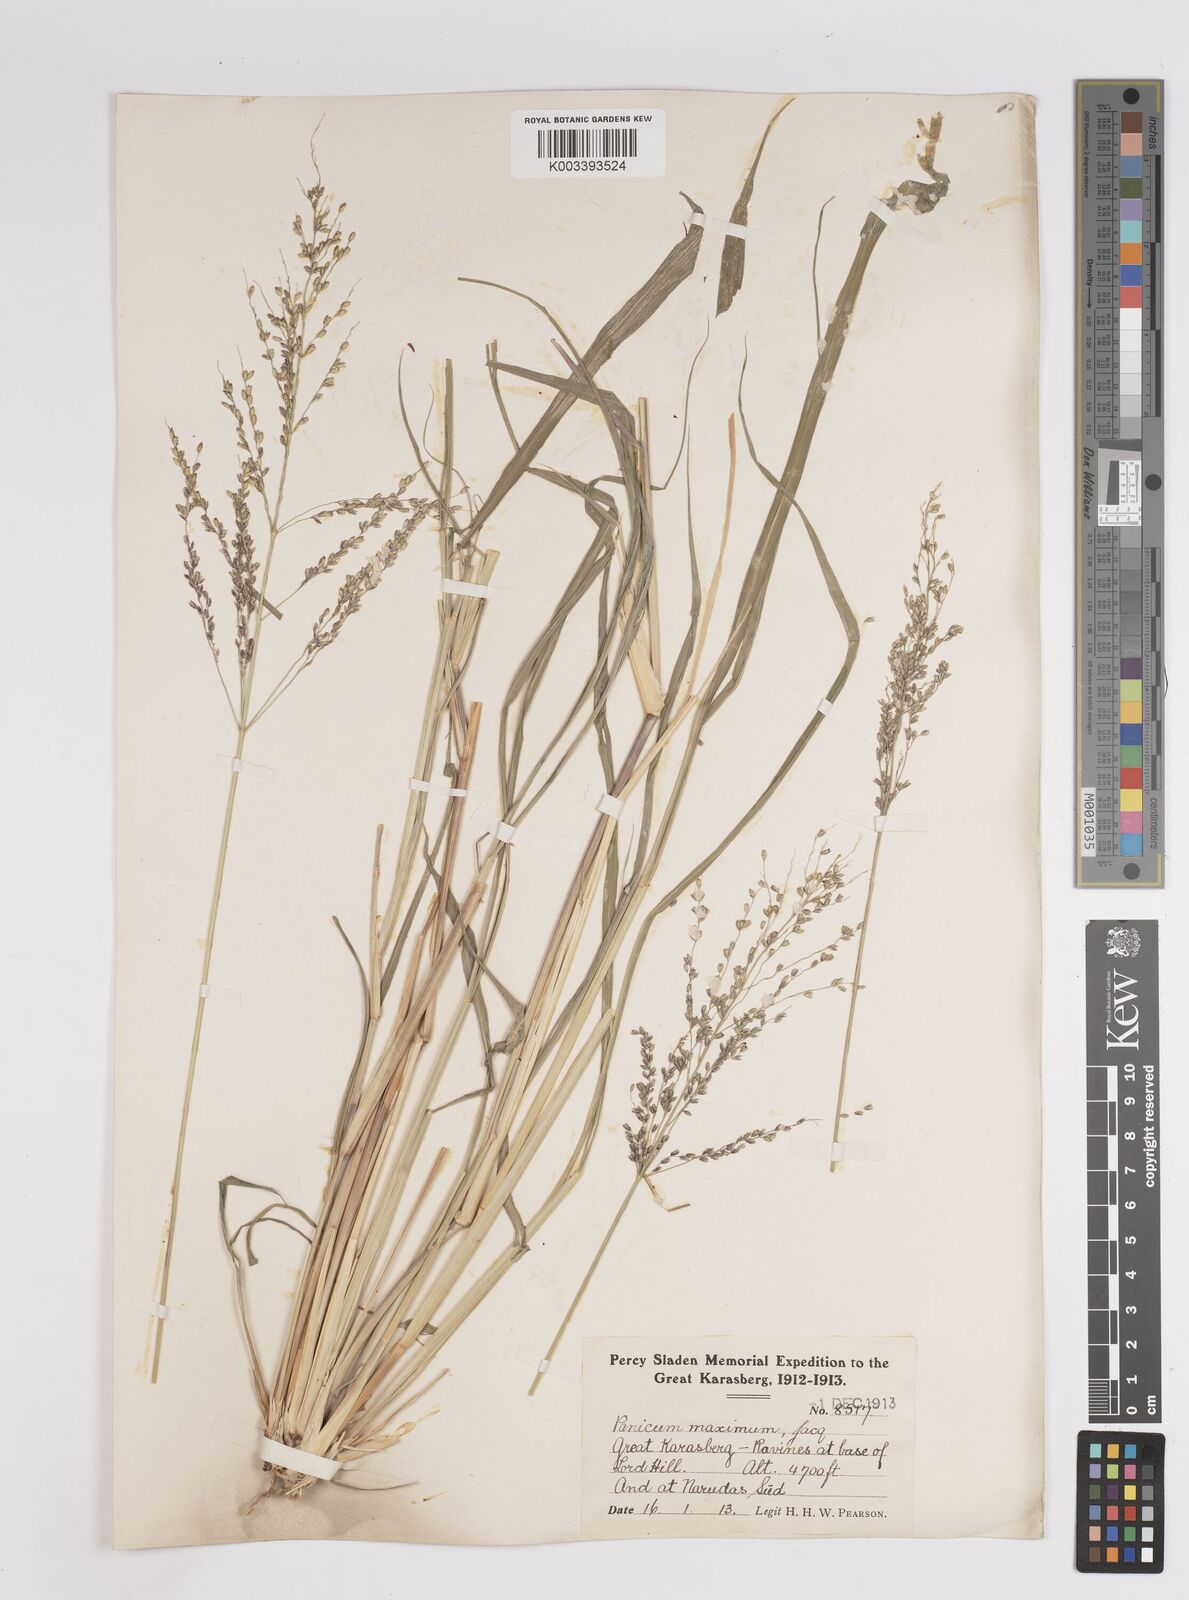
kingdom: Plantae
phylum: Tracheophyta
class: Liliopsida
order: Poales
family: Poaceae
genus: Megathyrsus
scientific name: Megathyrsus maximus
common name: Guineagrass
